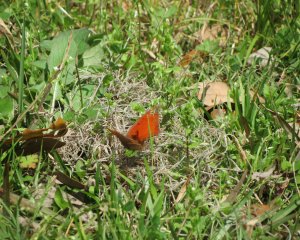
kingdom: Animalia
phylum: Arthropoda
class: Insecta
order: Lepidoptera
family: Nymphalidae
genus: Anaea
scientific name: Anaea andria
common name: Goatweed Leafwing
